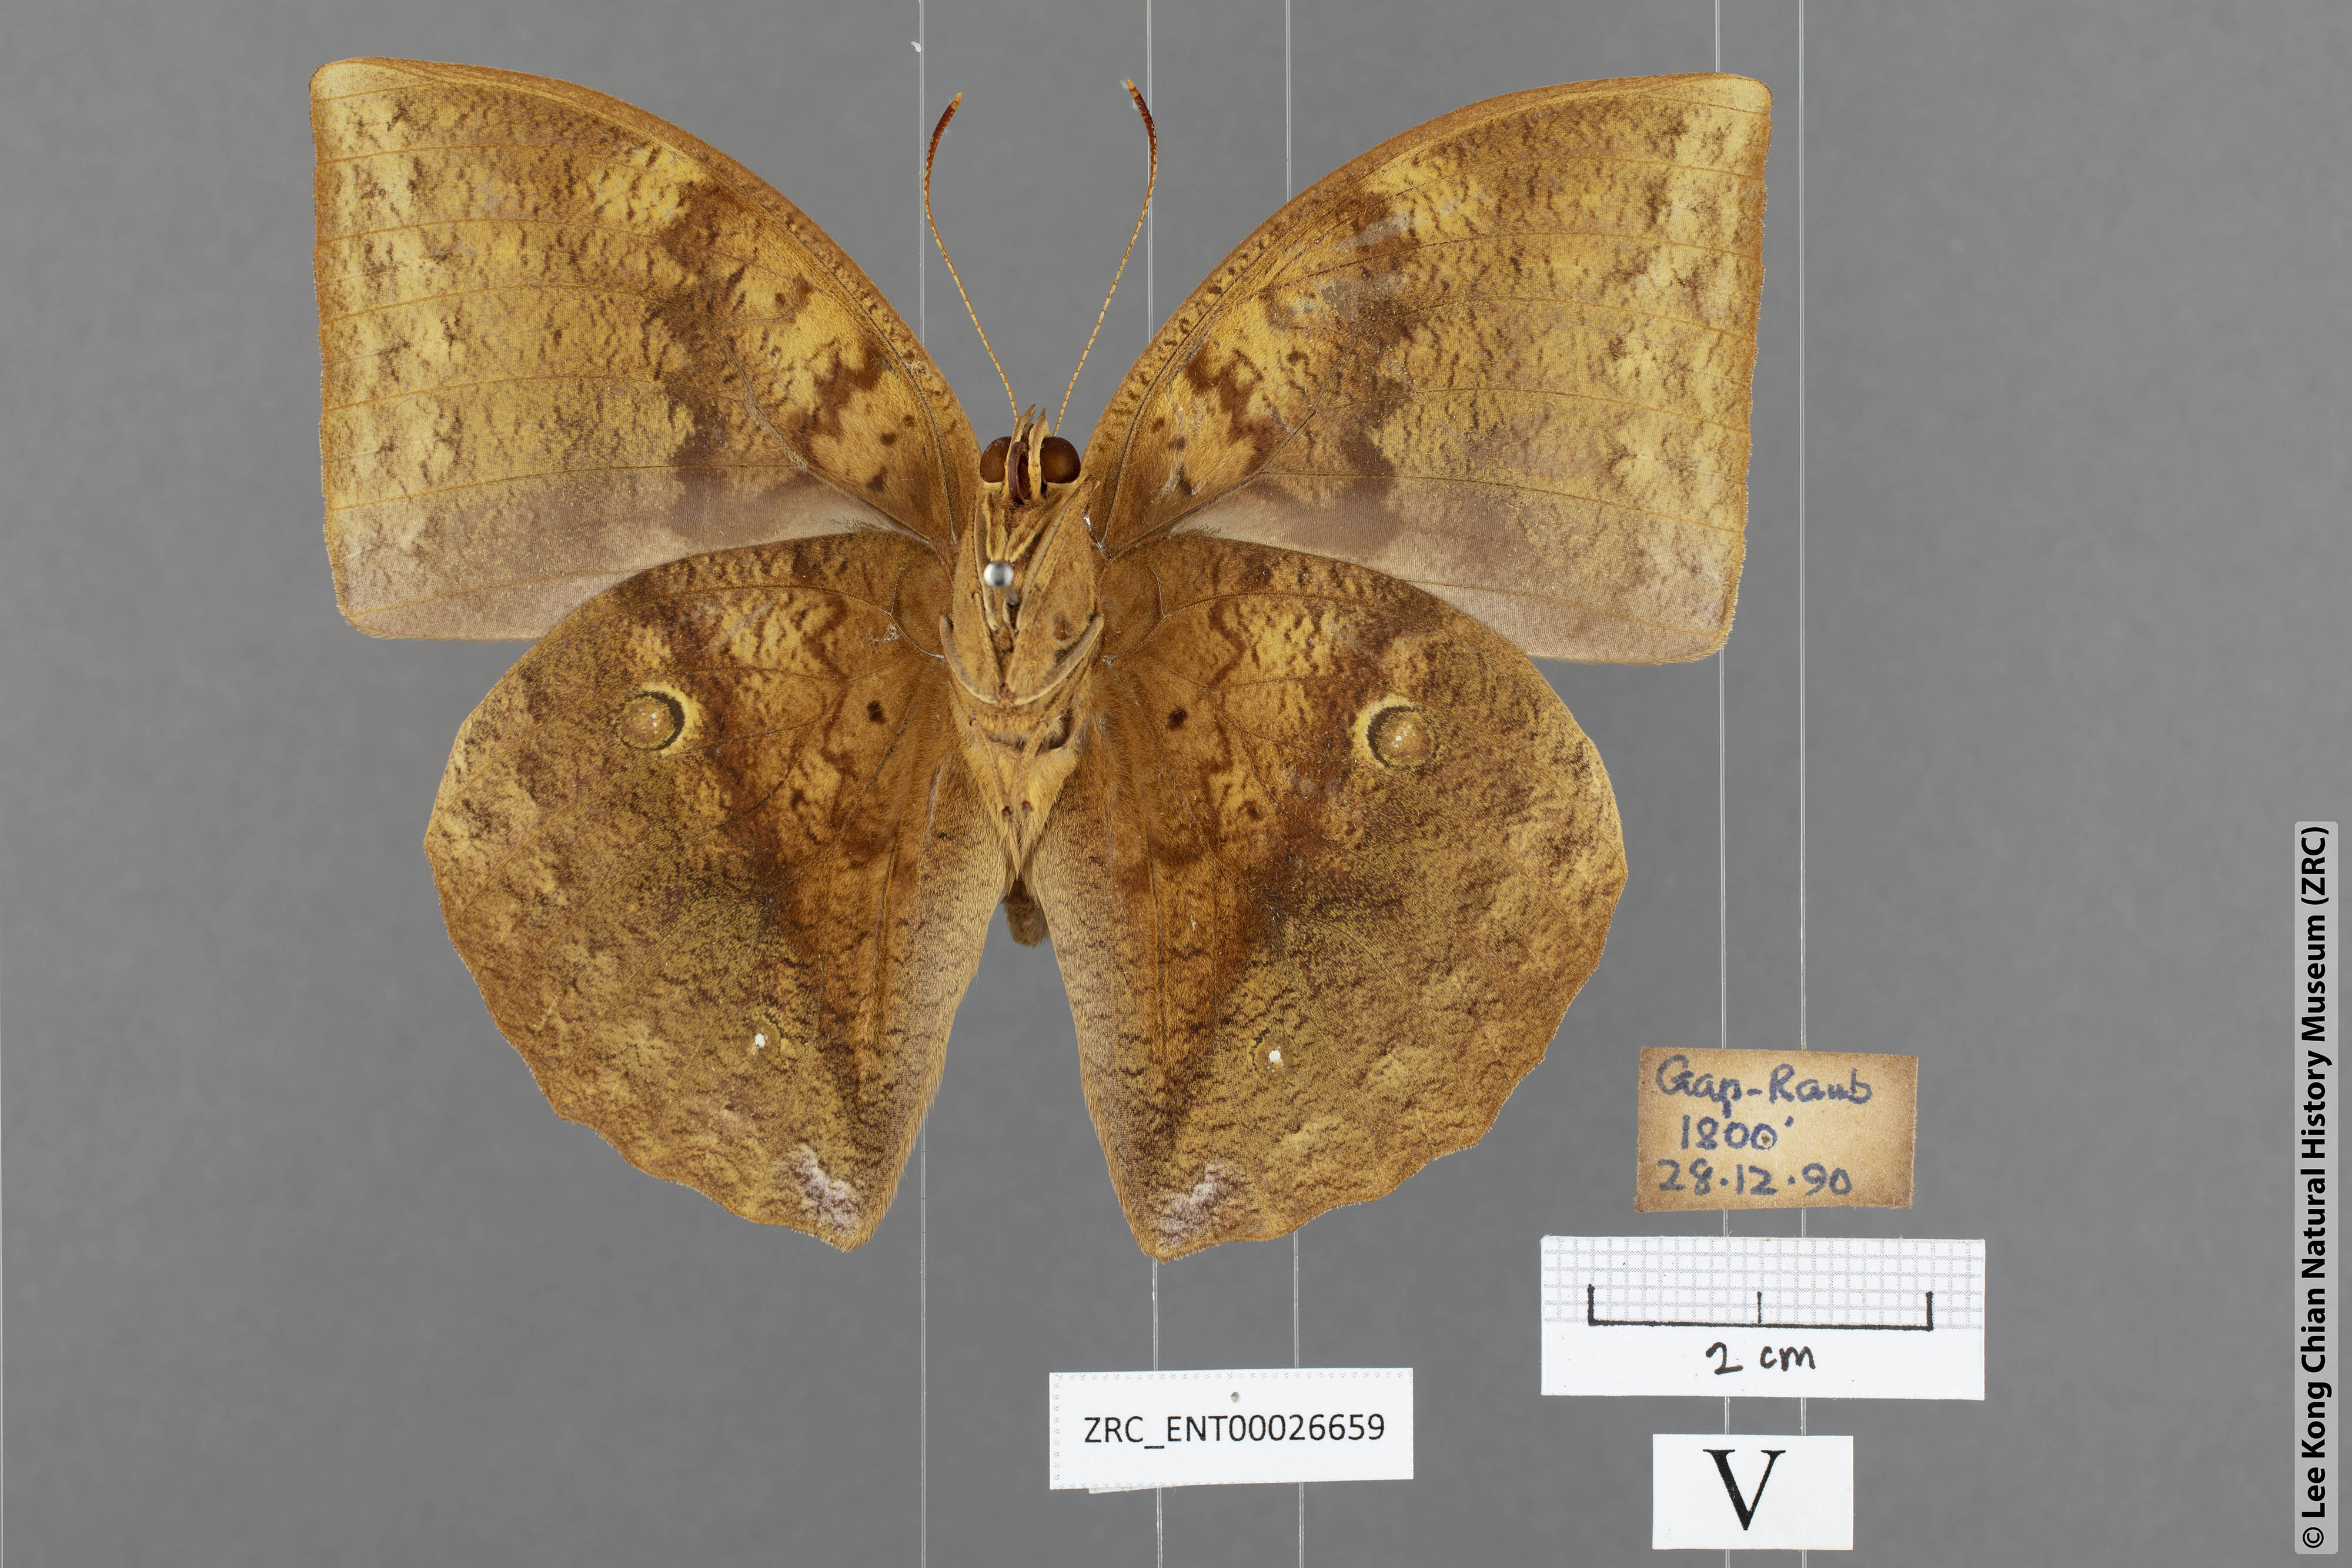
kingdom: Animalia
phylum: Arthropoda
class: Insecta
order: Lepidoptera
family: Nymphalidae
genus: Discophora
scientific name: Discophora timora
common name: Great duffer
